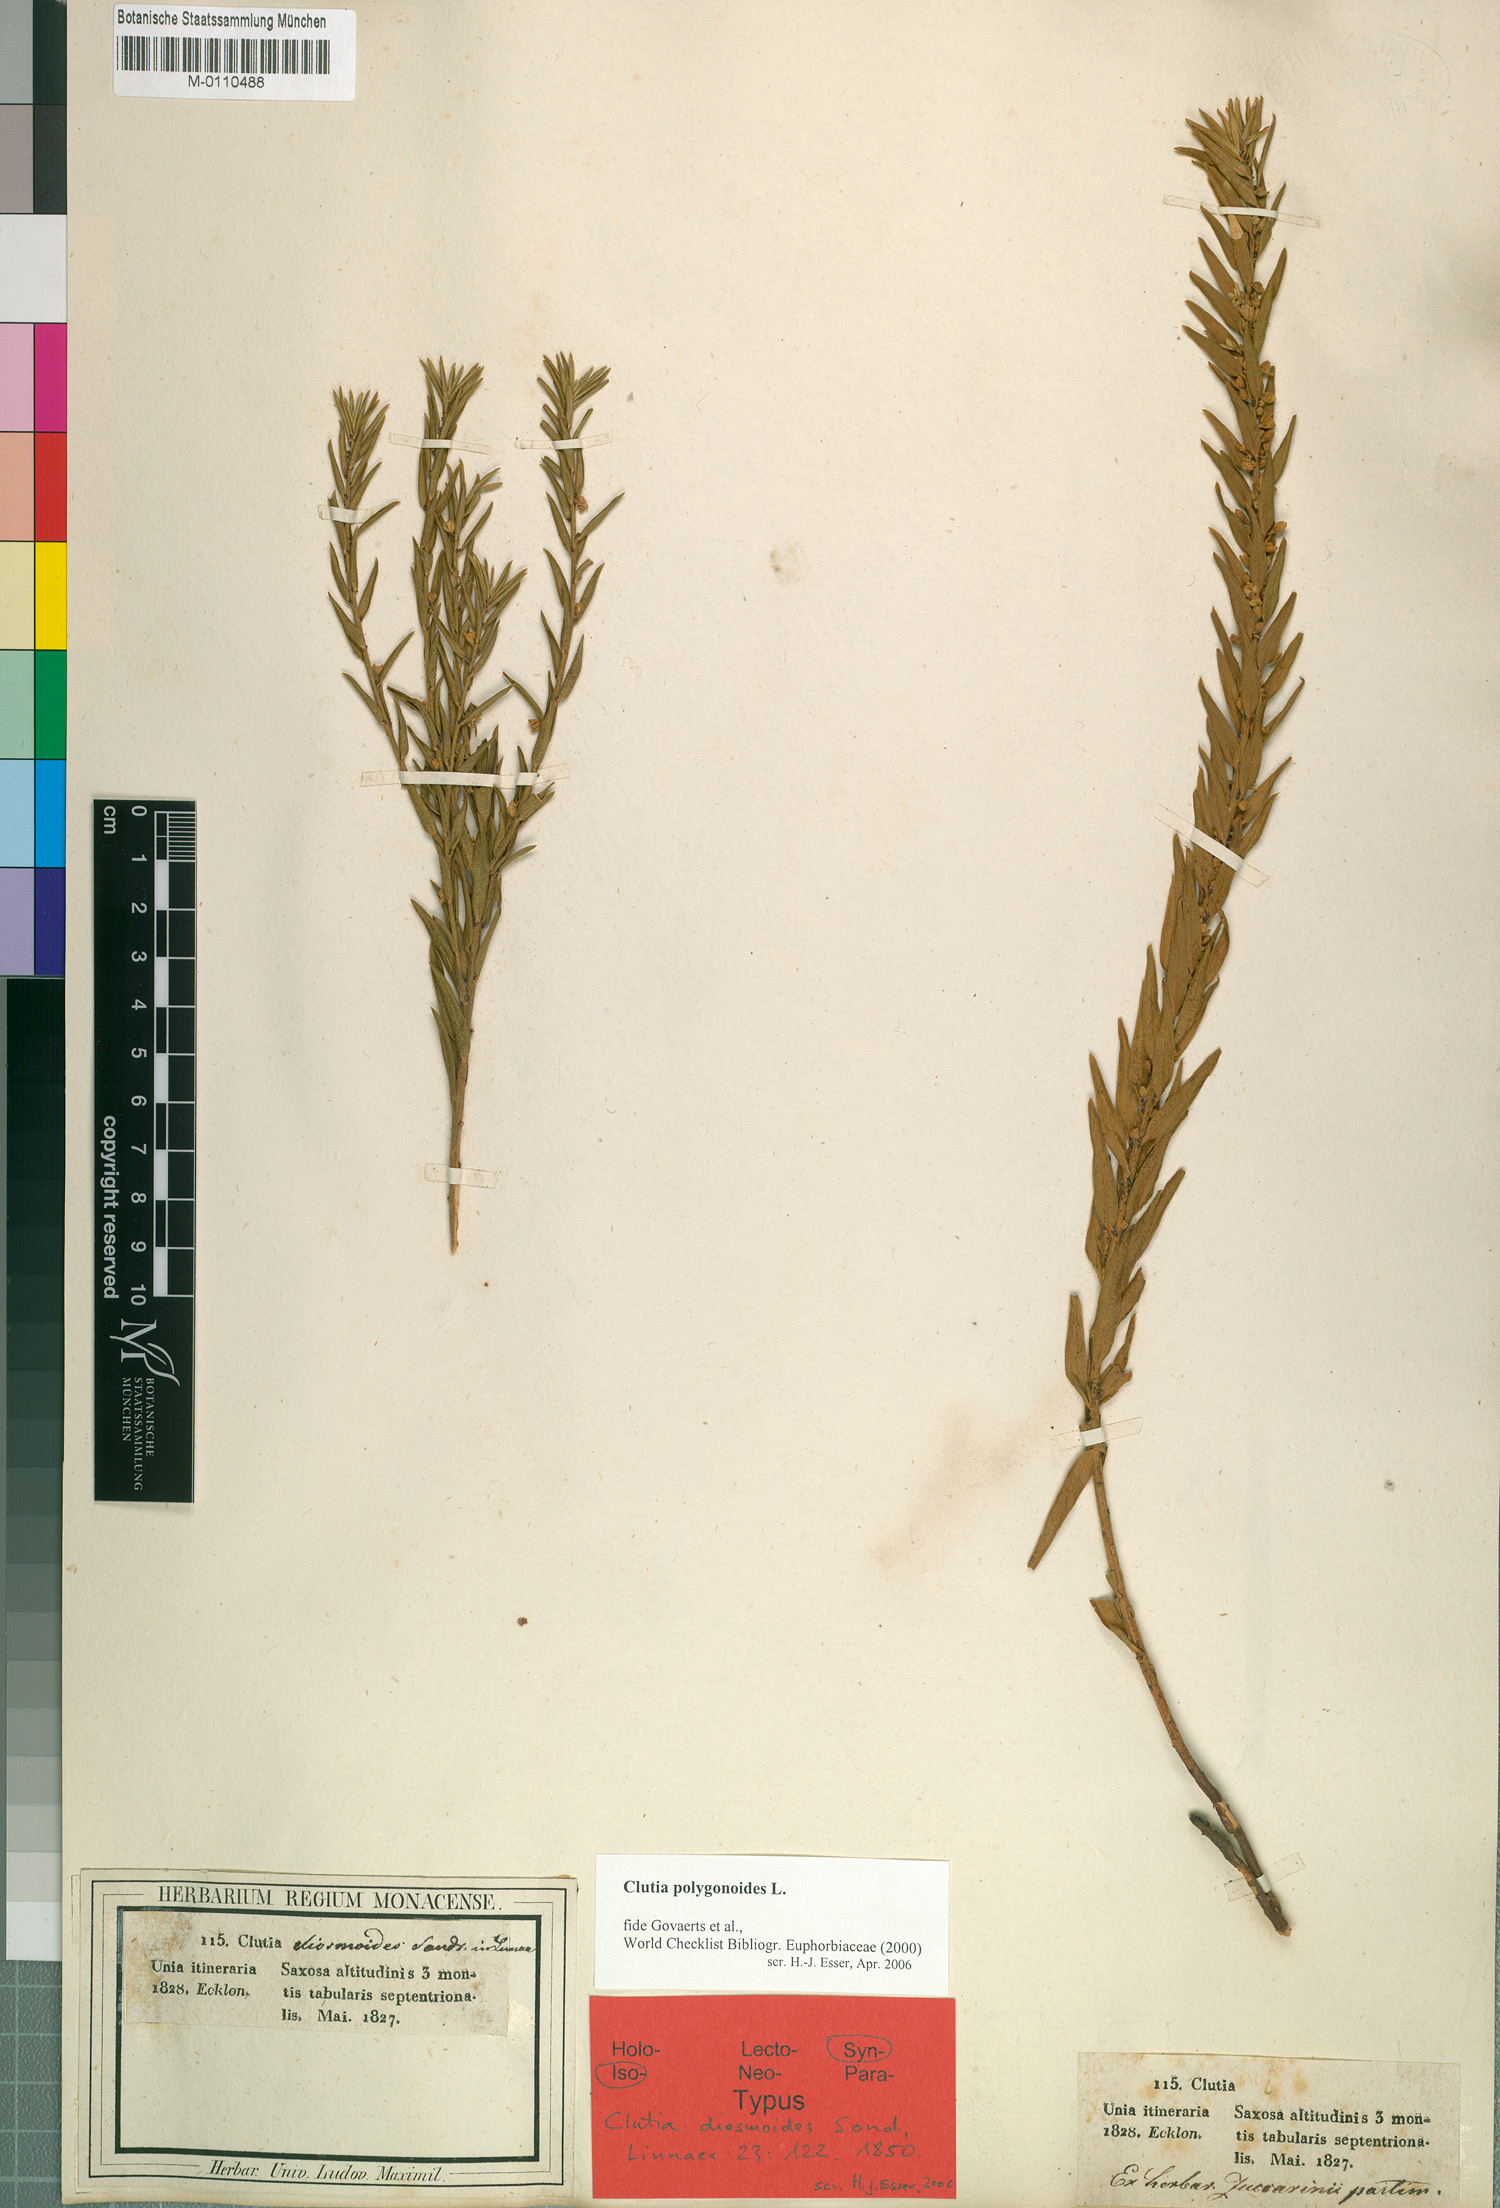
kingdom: Plantae
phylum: Tracheophyta
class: Magnoliopsida
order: Malpighiales
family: Peraceae
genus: Clutia
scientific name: Clutia polygonoides
